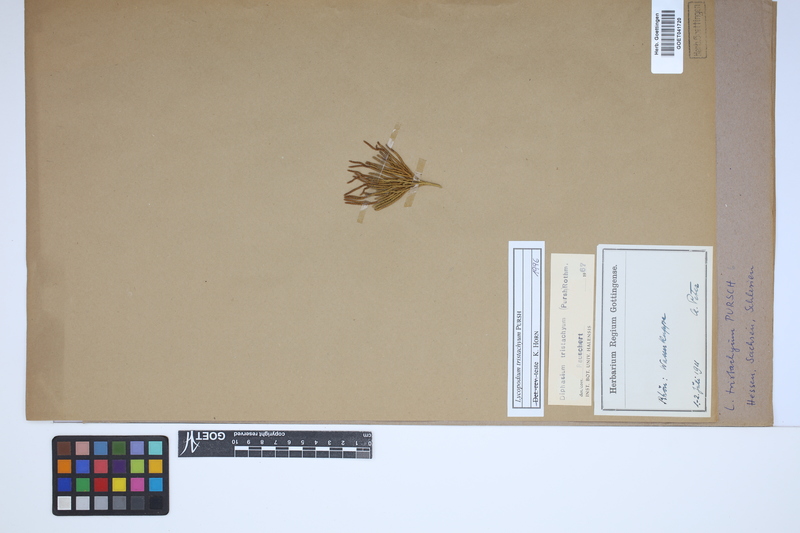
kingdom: Plantae
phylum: Tracheophyta
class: Lycopodiopsida
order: Lycopodiales
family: Lycopodiaceae
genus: Diphasiastrum
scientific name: Diphasiastrum tristachyum
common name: Blue ground-cedar
